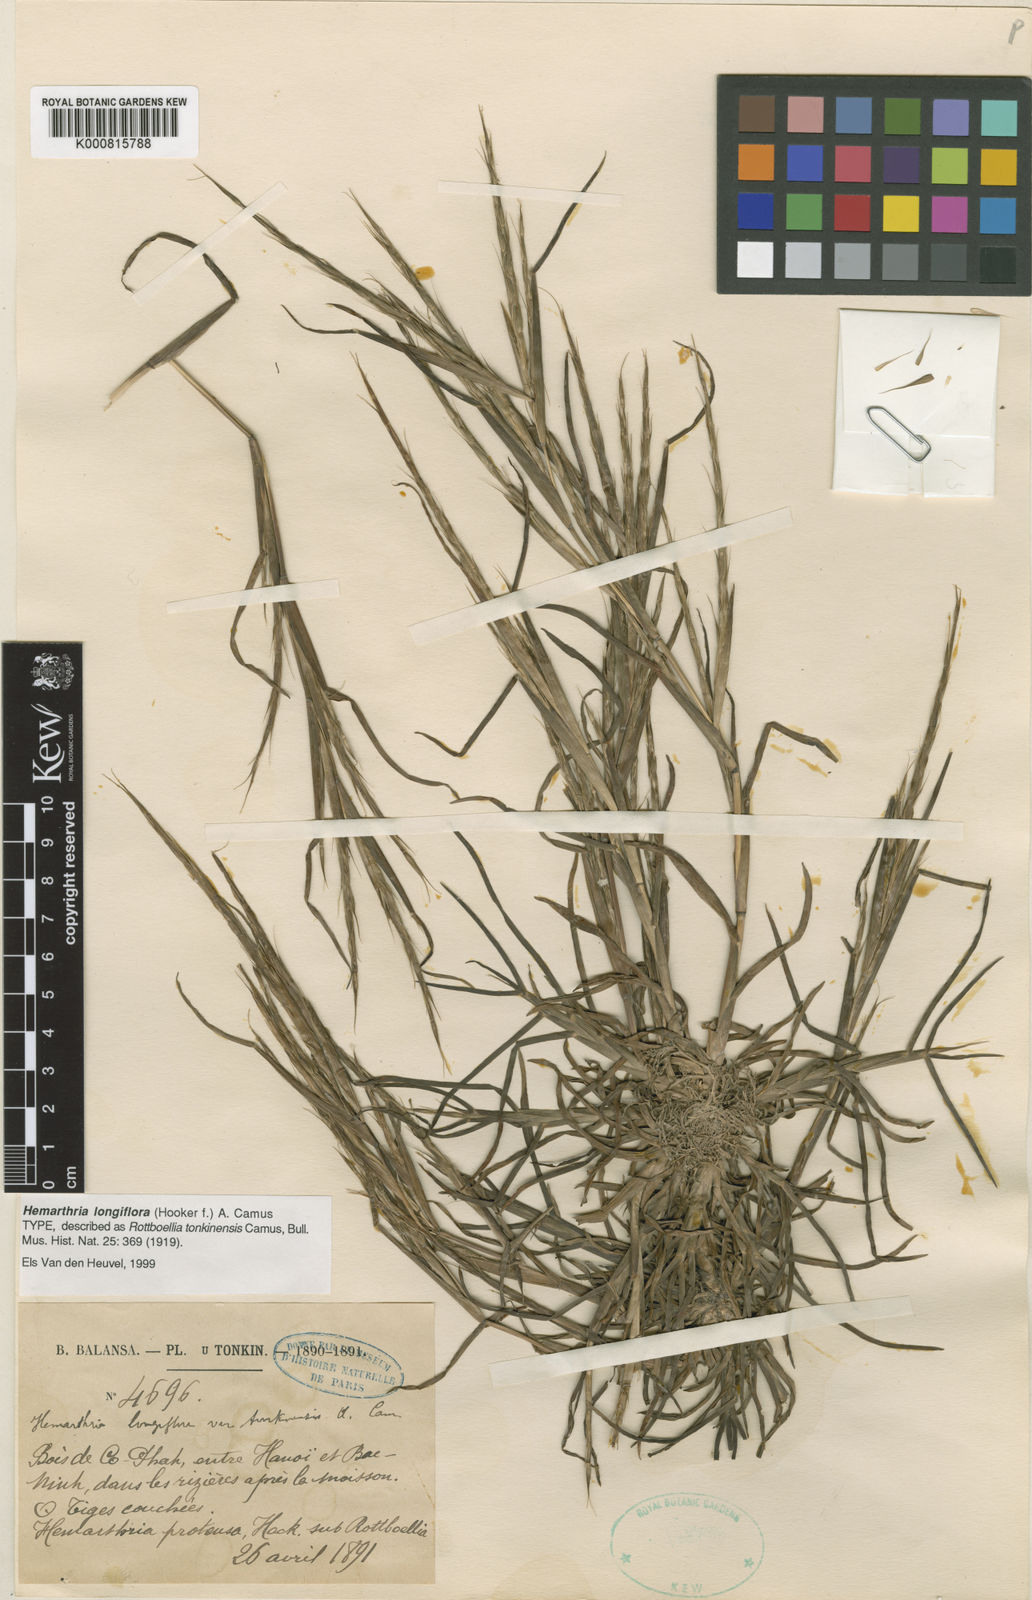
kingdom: Plantae
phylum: Tracheophyta
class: Liliopsida
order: Poales
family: Poaceae
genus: Hemarthria
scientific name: Hemarthria longiflora
